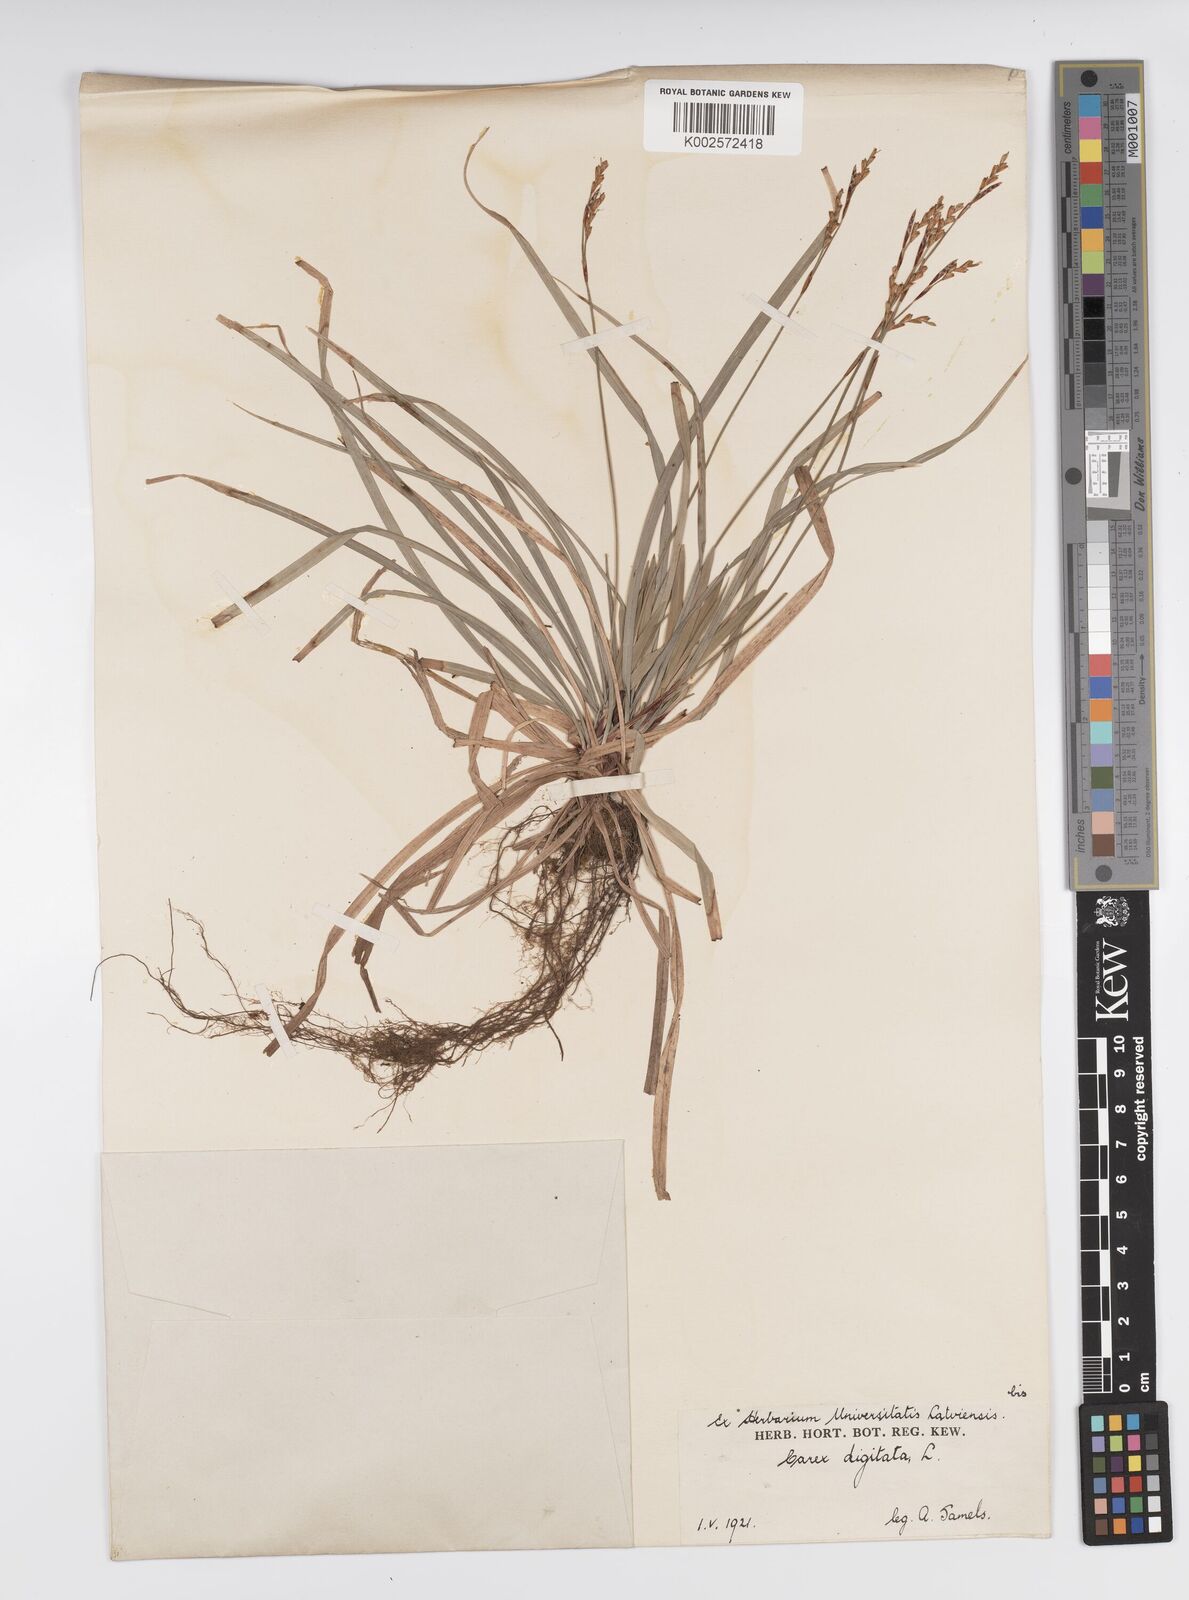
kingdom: Plantae
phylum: Tracheophyta
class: Liliopsida
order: Poales
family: Cyperaceae
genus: Carex
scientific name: Carex digitata
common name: Fingered sedge
